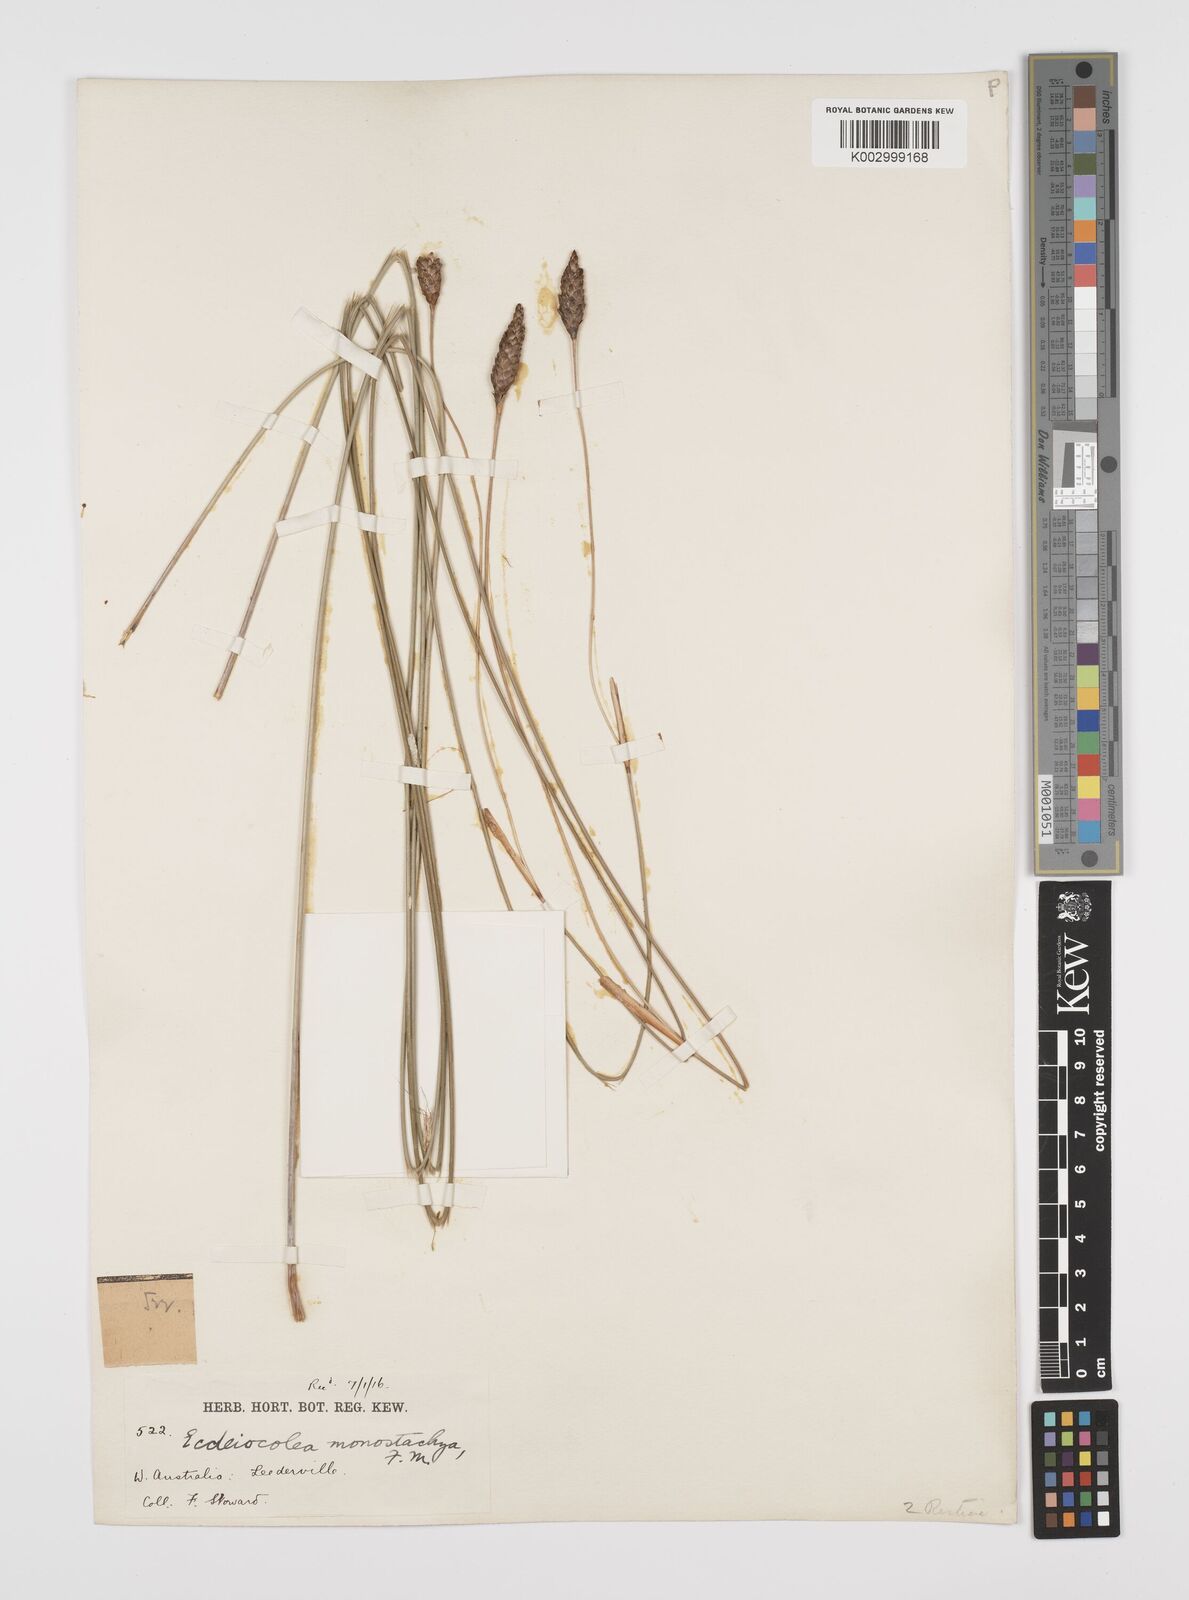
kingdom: Plantae
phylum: Tracheophyta
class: Liliopsida
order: Poales
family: Ecdeiocoleaceae
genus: Ecdeiocolea
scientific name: Ecdeiocolea monostachya
